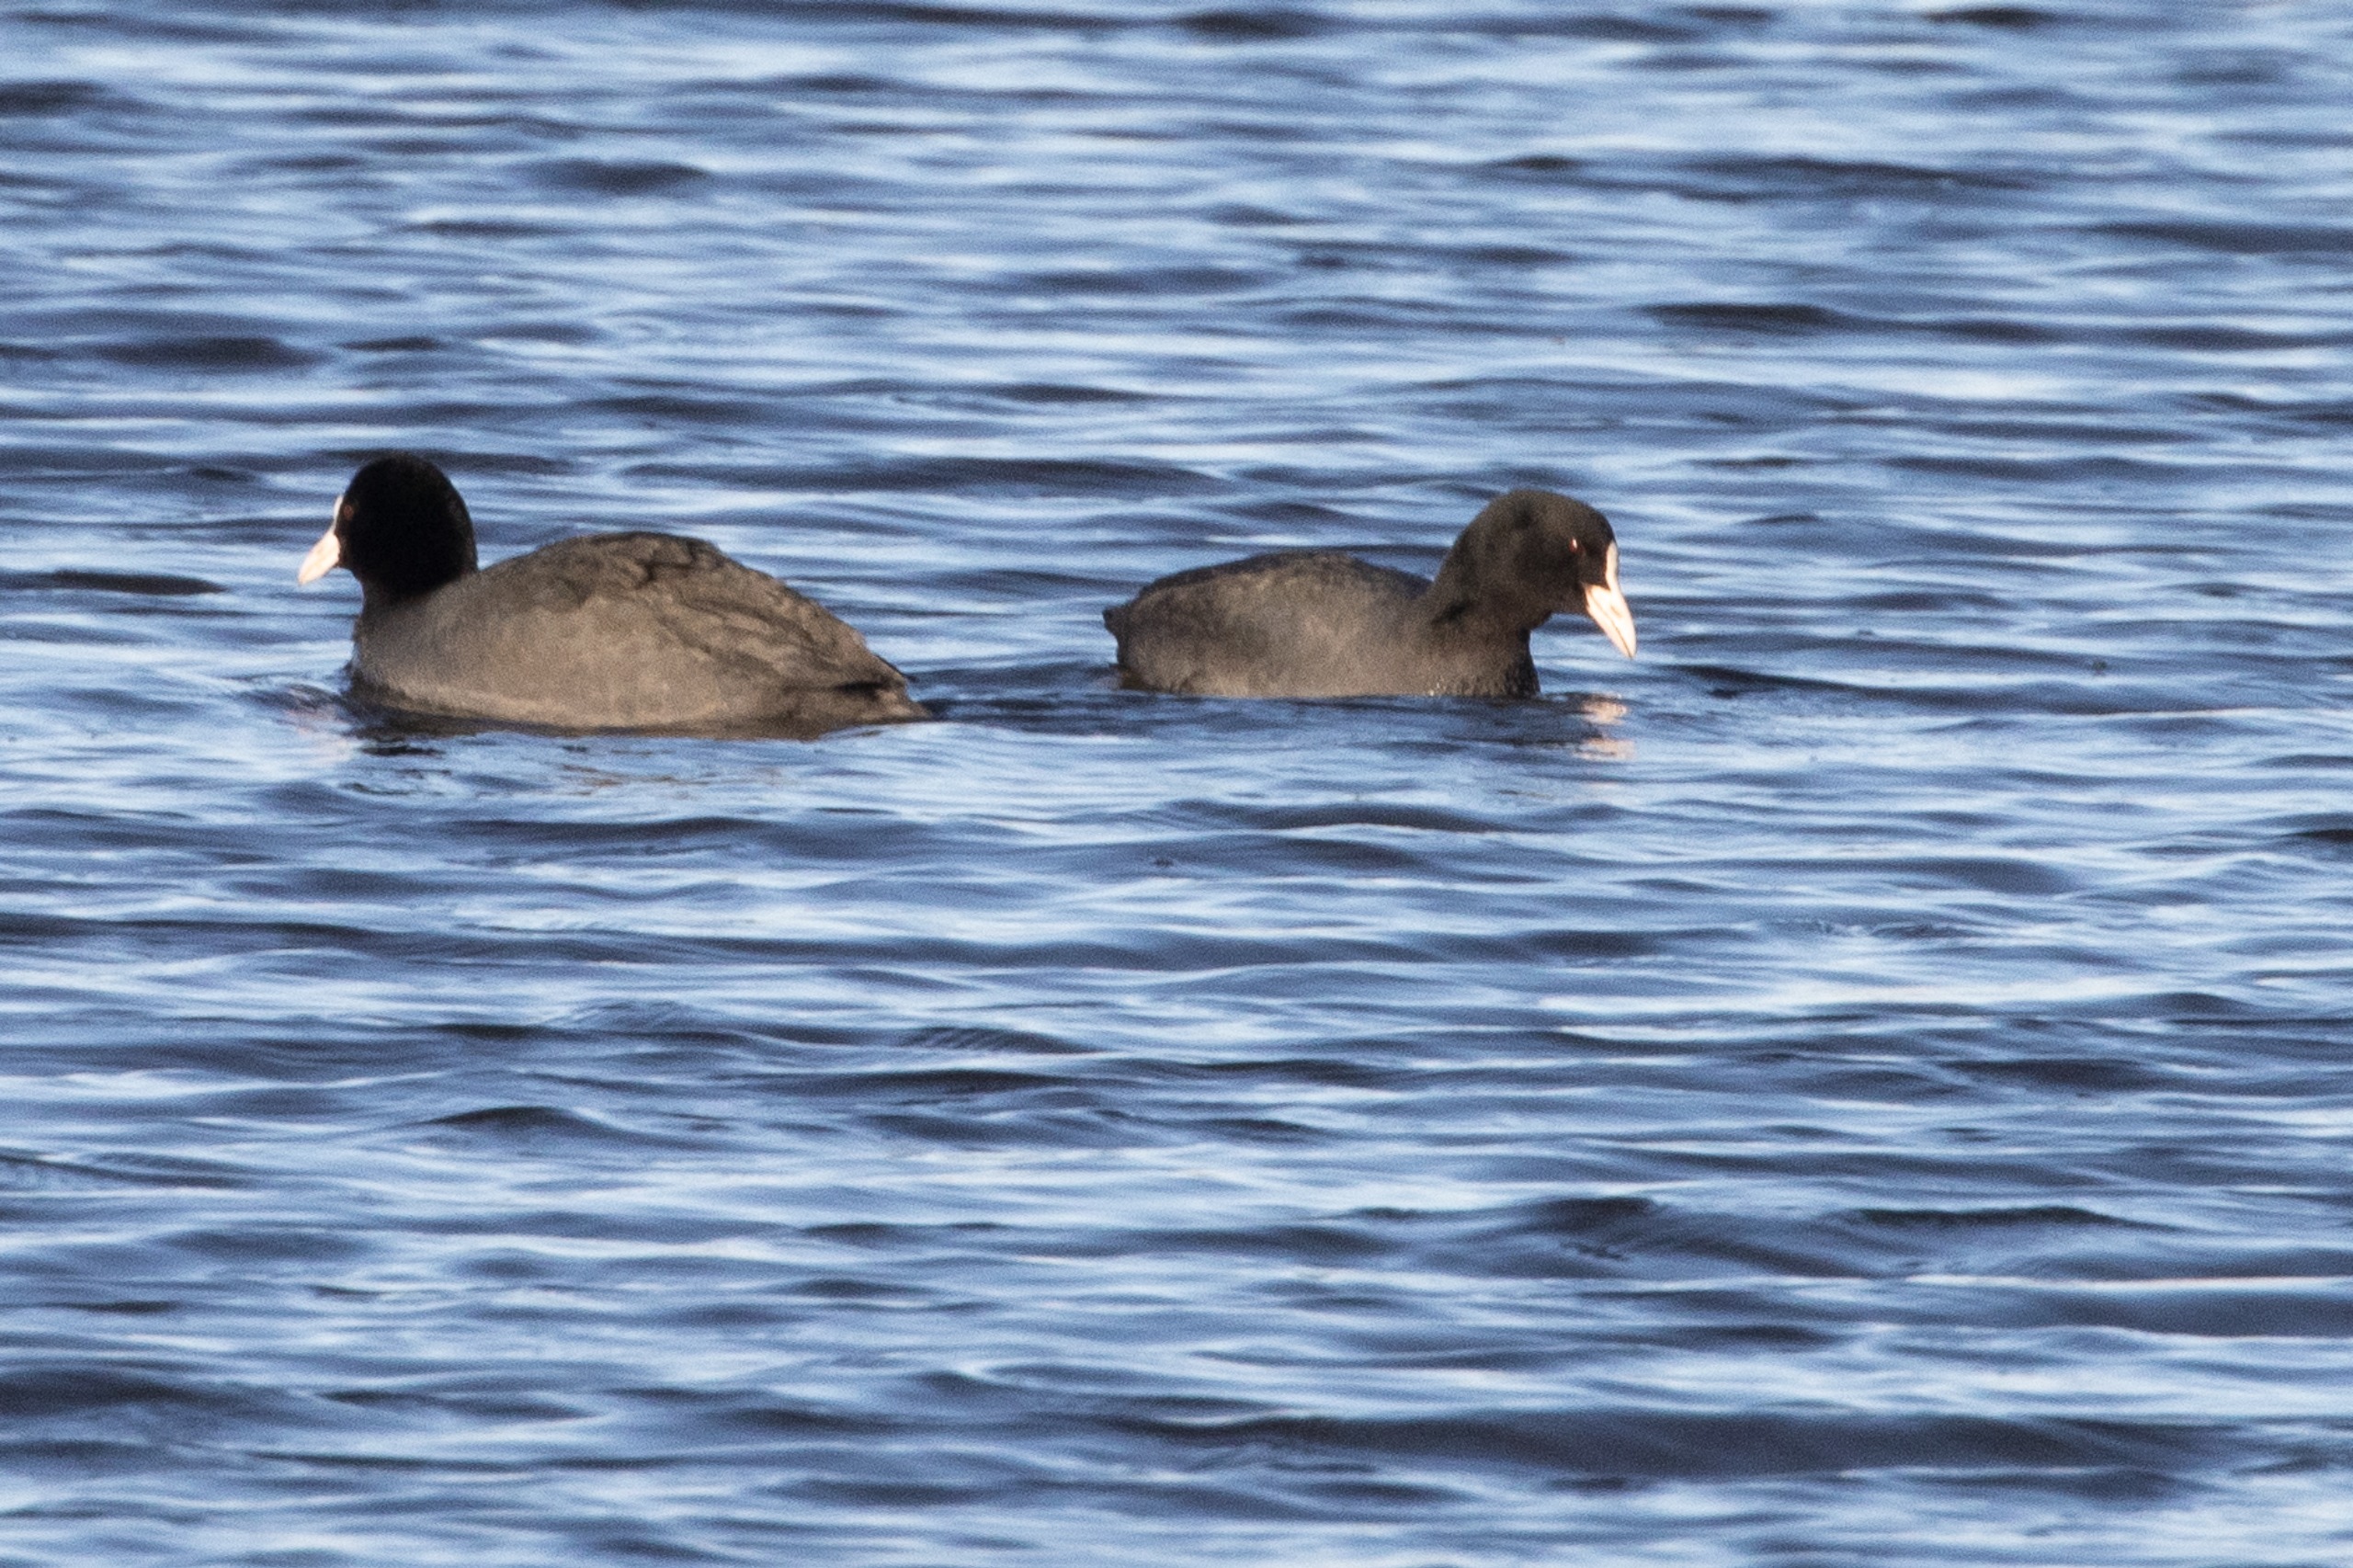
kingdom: Animalia
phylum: Chordata
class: Aves
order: Gruiformes
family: Rallidae
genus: Fulica
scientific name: Fulica atra
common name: Blishøne
